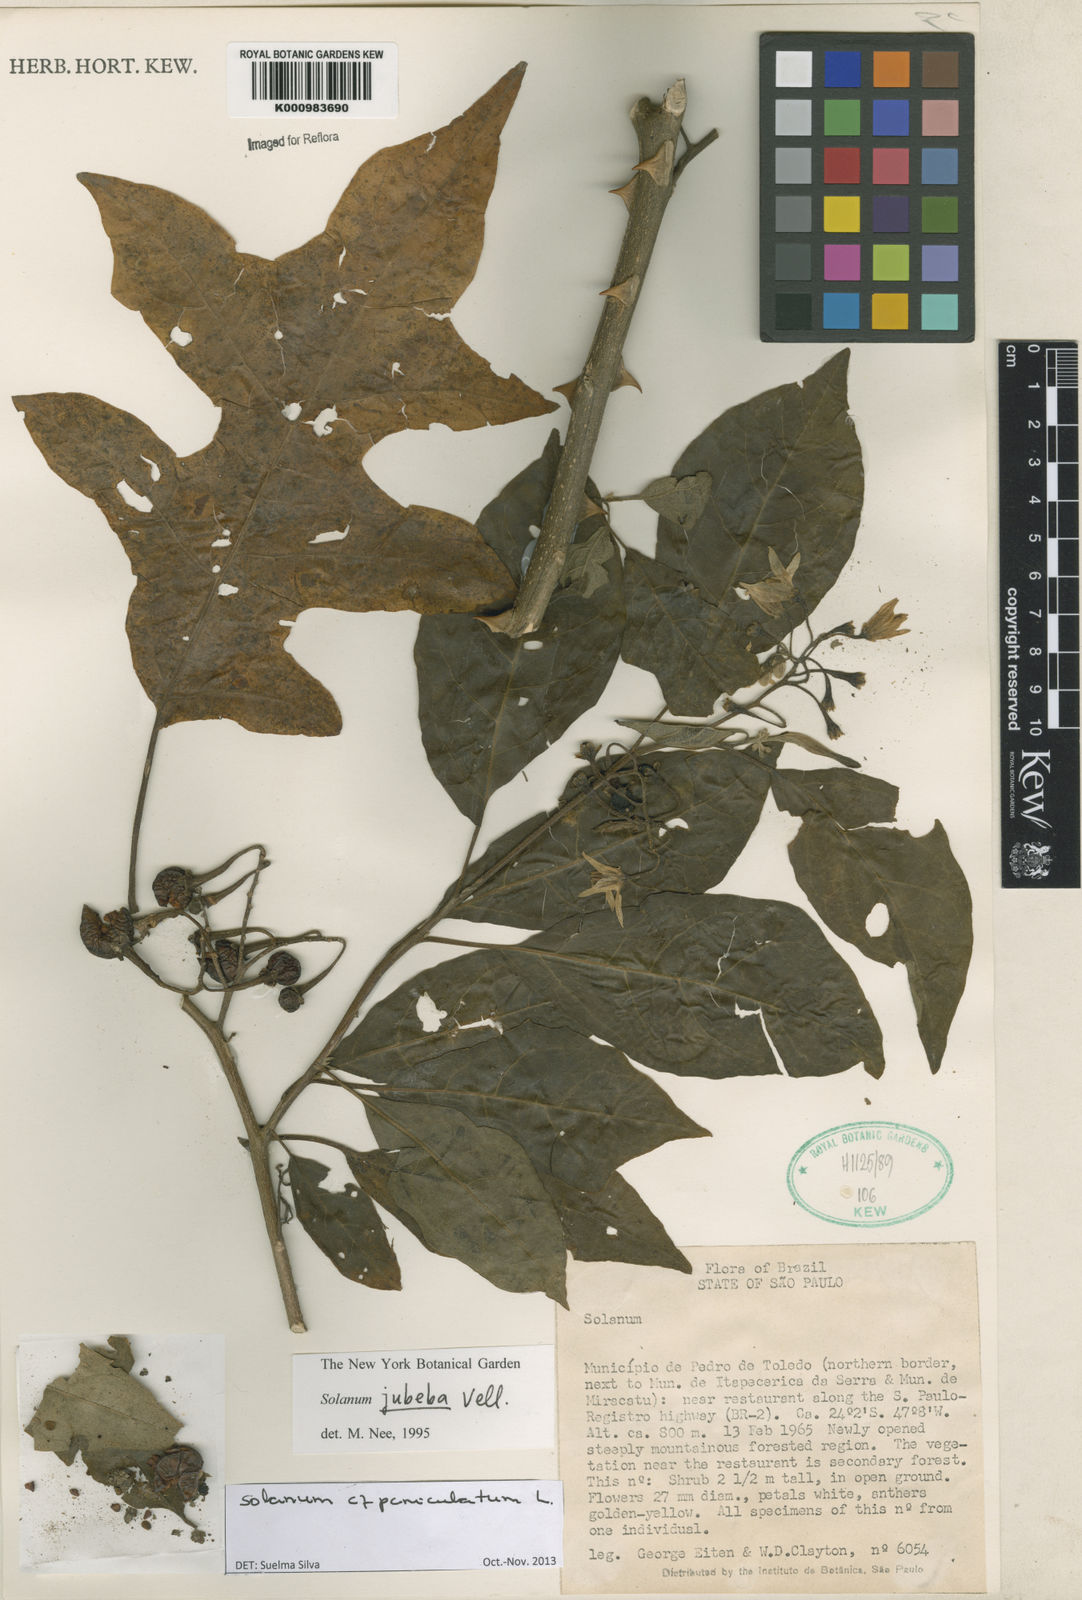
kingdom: Plantae
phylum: Tracheophyta
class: Magnoliopsida
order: Solanales
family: Solanaceae
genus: Solanum
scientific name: Solanum paniculatum
